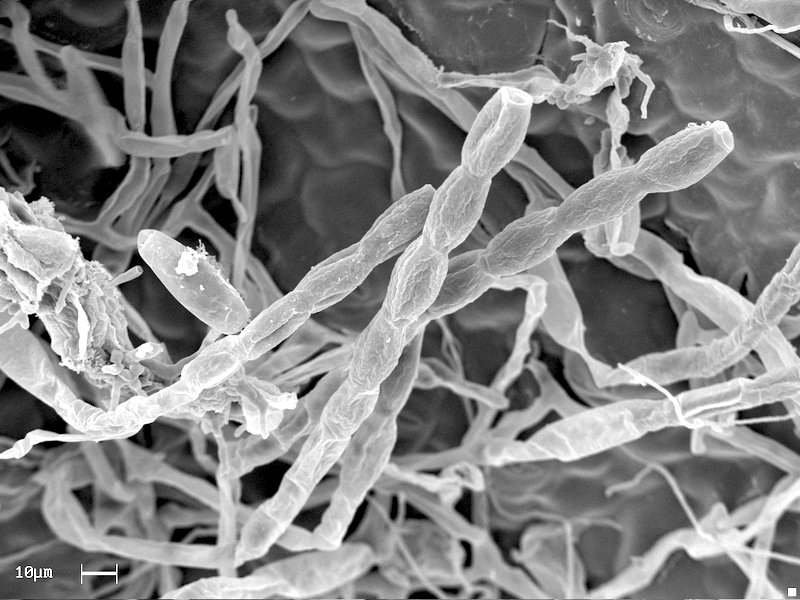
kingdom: Fungi
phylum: Ascomycota
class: Leotiomycetes
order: Helotiales
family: Erysiphaceae
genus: Podosphaera
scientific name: Podosphaera aphanis
